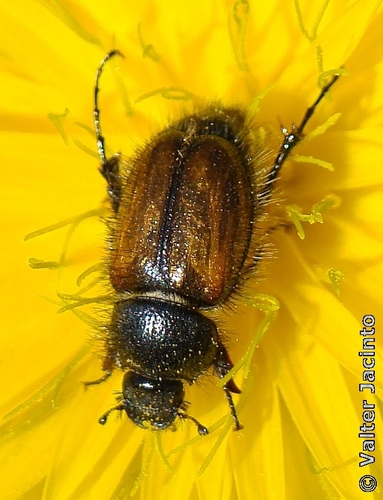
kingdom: Animalia
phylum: Arthropoda
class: Insecta
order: Coleoptera
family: Scarabaeidae
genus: Chasmatopterus
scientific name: Chasmatopterus villosulus
